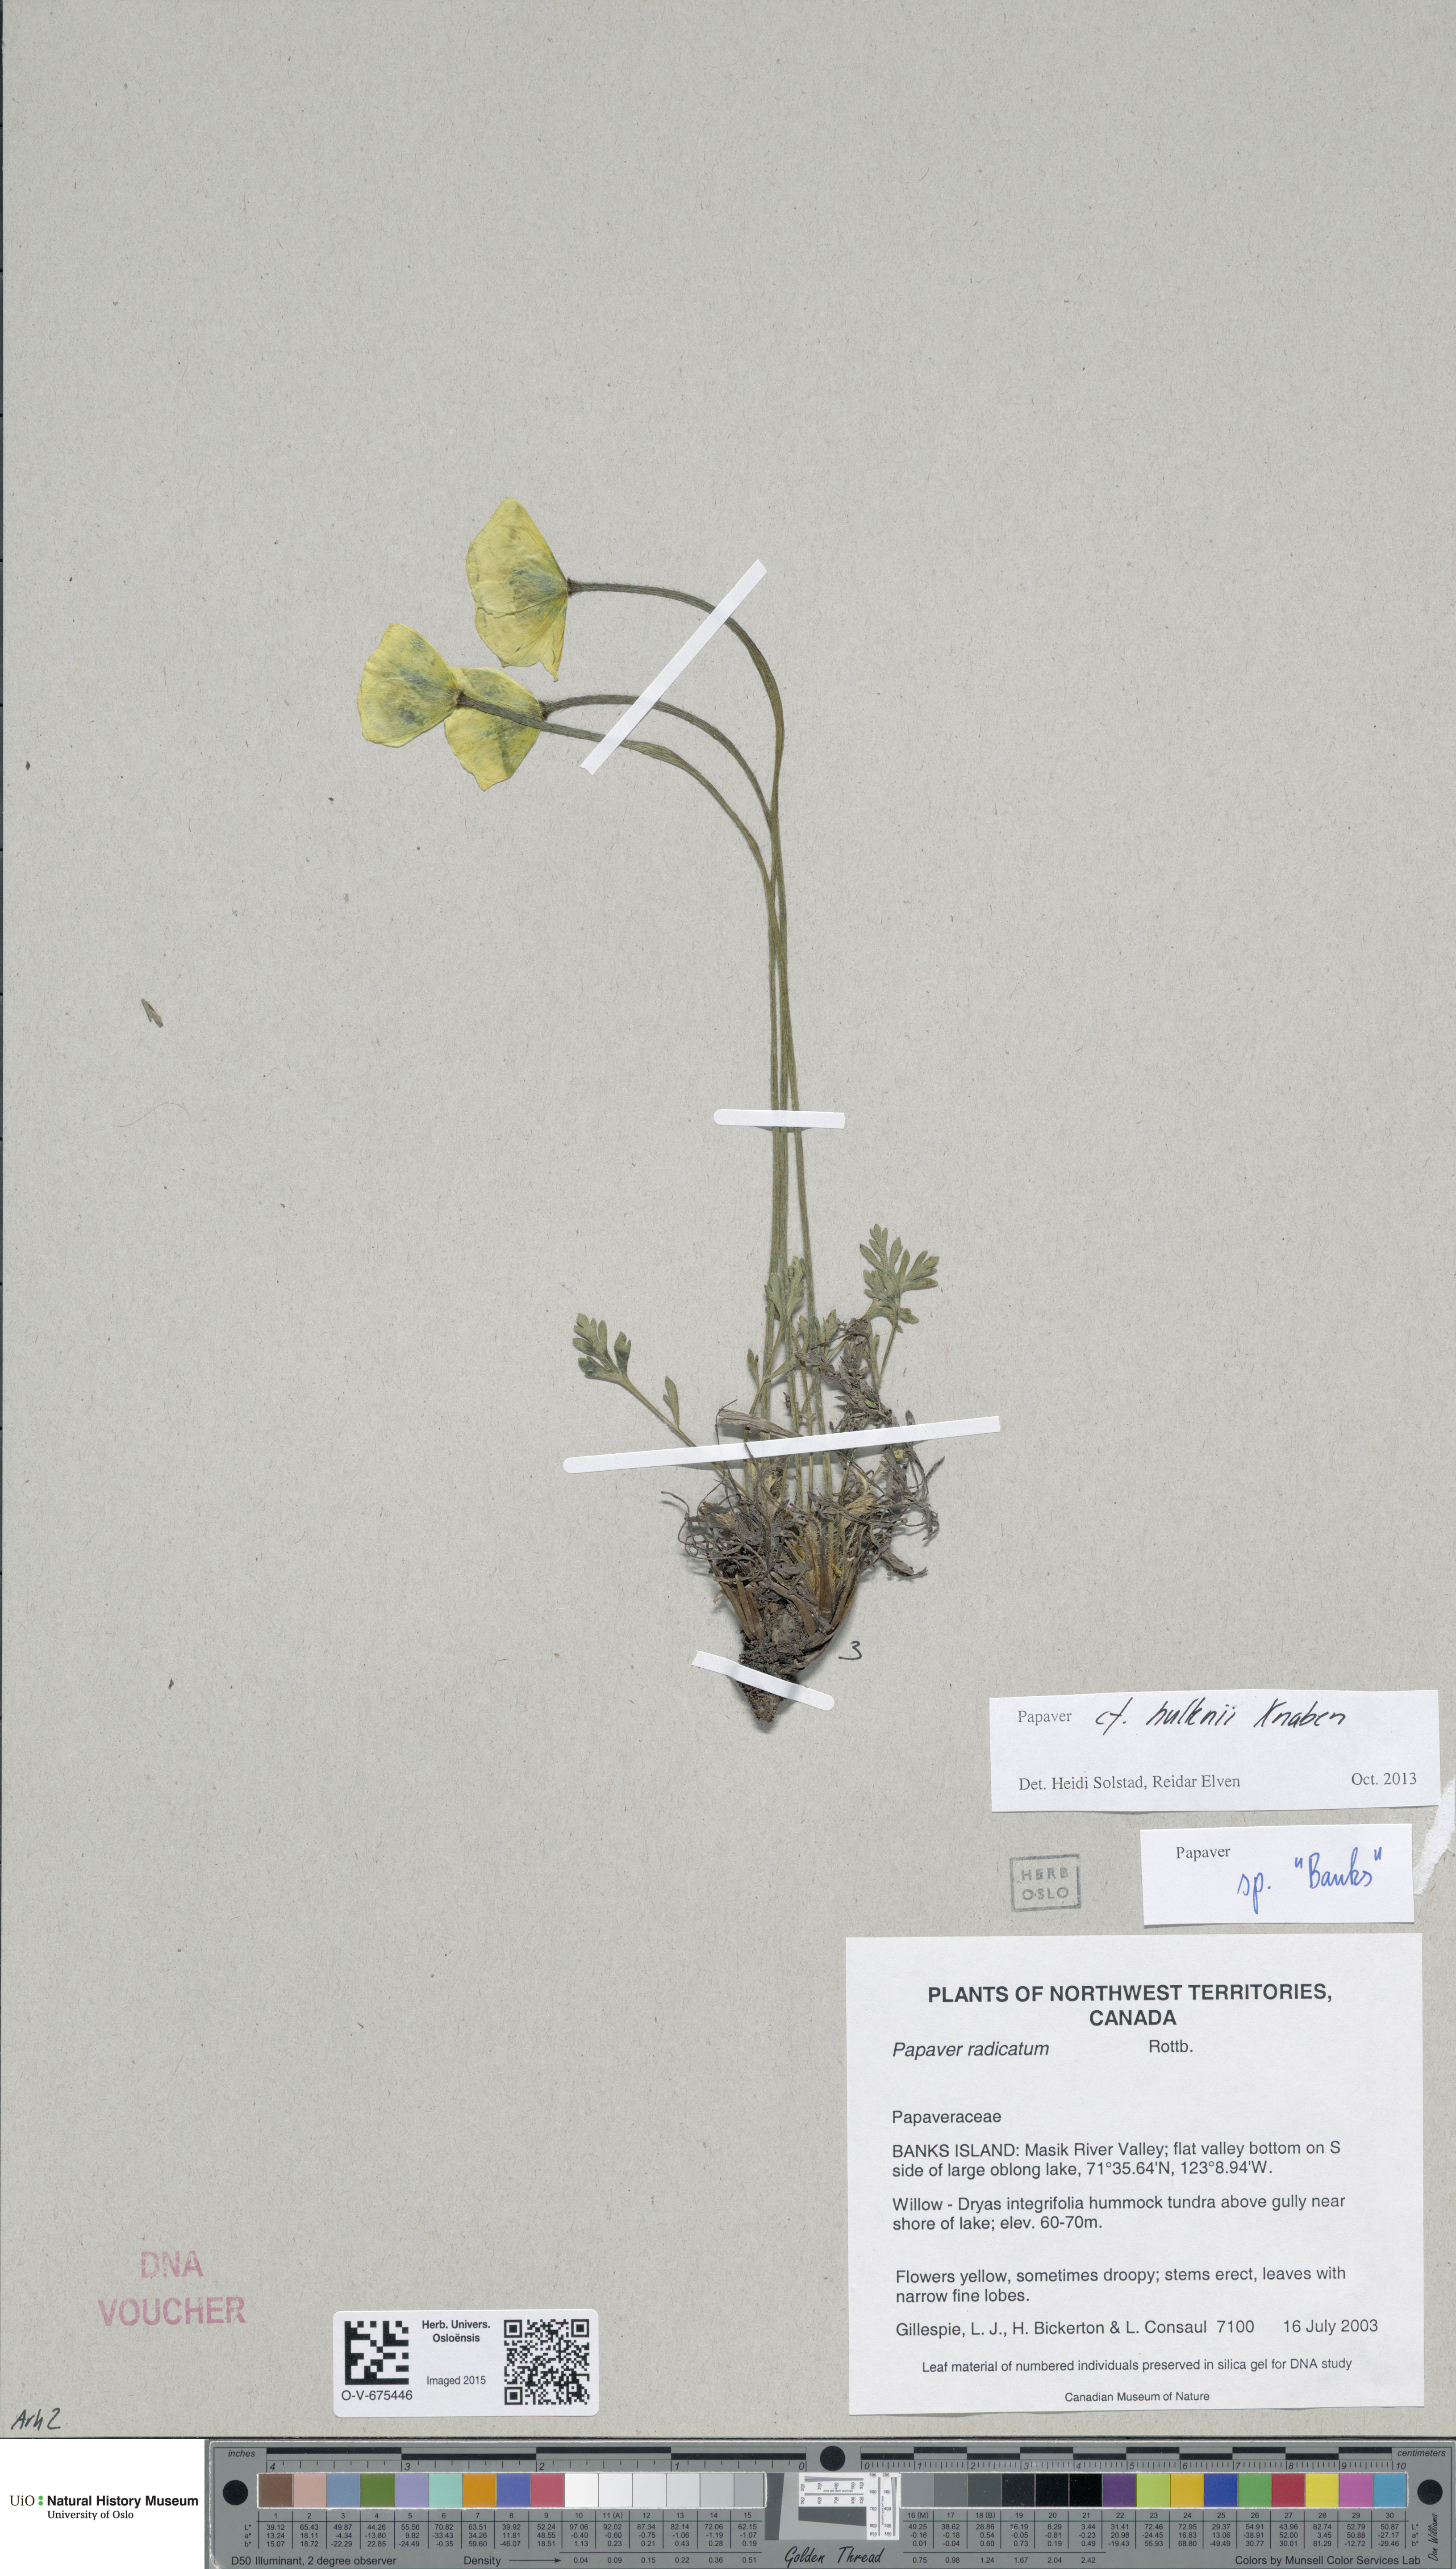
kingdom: Plantae
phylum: Tracheophyta
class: Magnoliopsida
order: Ranunculales
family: Papaveraceae
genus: Papaver
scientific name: Papaver lapponicum
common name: Lapland poppy
